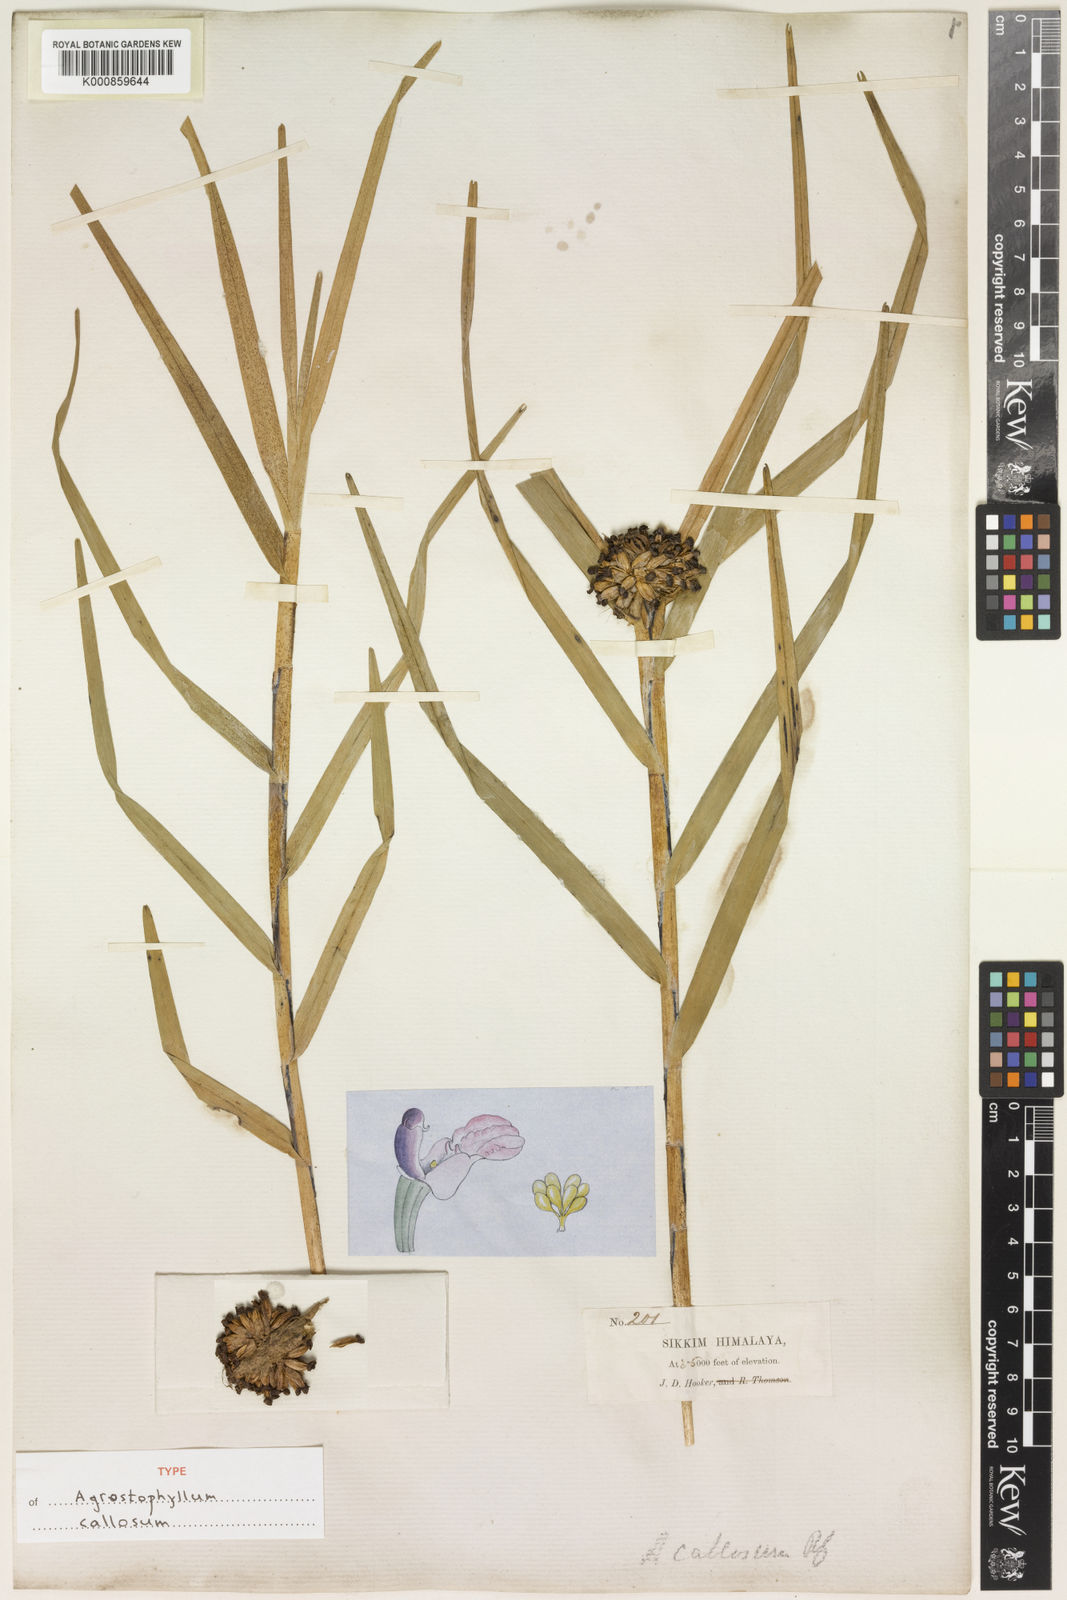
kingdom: Plantae
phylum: Tracheophyta
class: Liliopsida
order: Asparagales
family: Orchidaceae
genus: Agrostophyllum
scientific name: Agrostophyllum callosum
